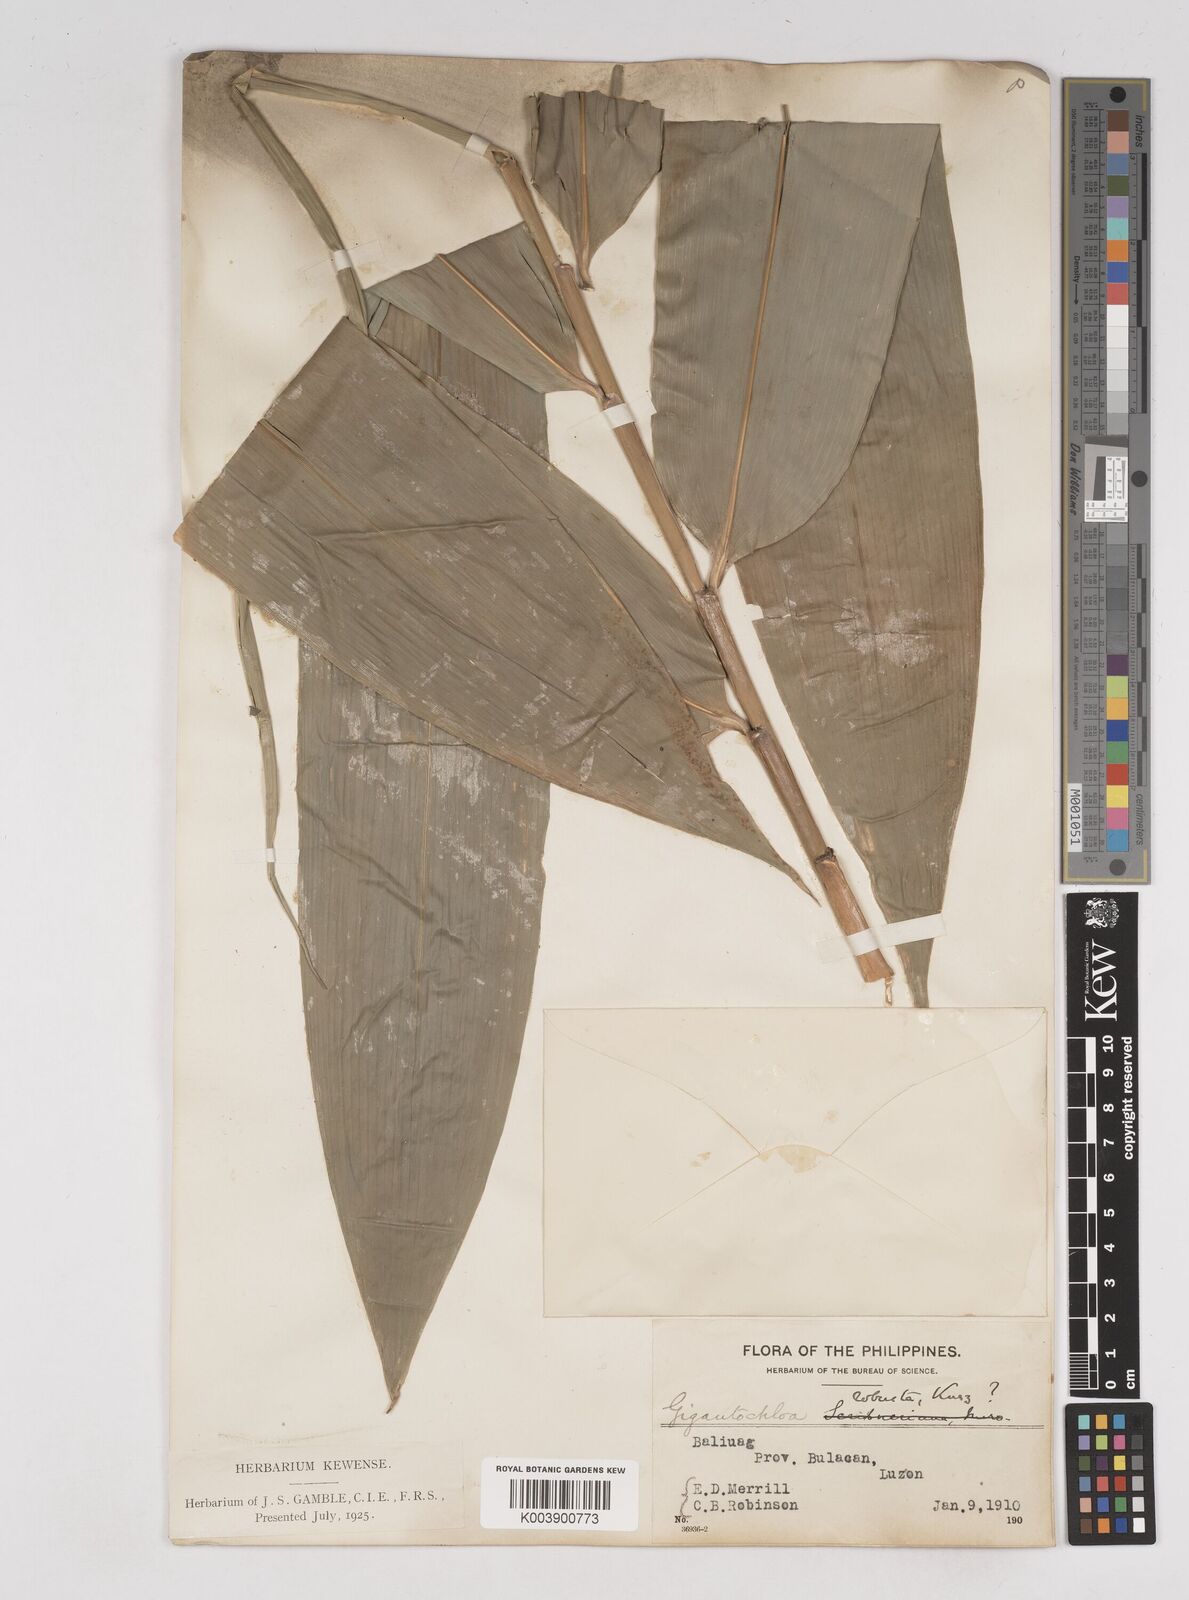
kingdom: Plantae
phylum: Tracheophyta
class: Liliopsida
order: Poales
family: Poaceae
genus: Gigantochloa
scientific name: Gigantochloa levis
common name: Smooth-shoot gigantochloa
